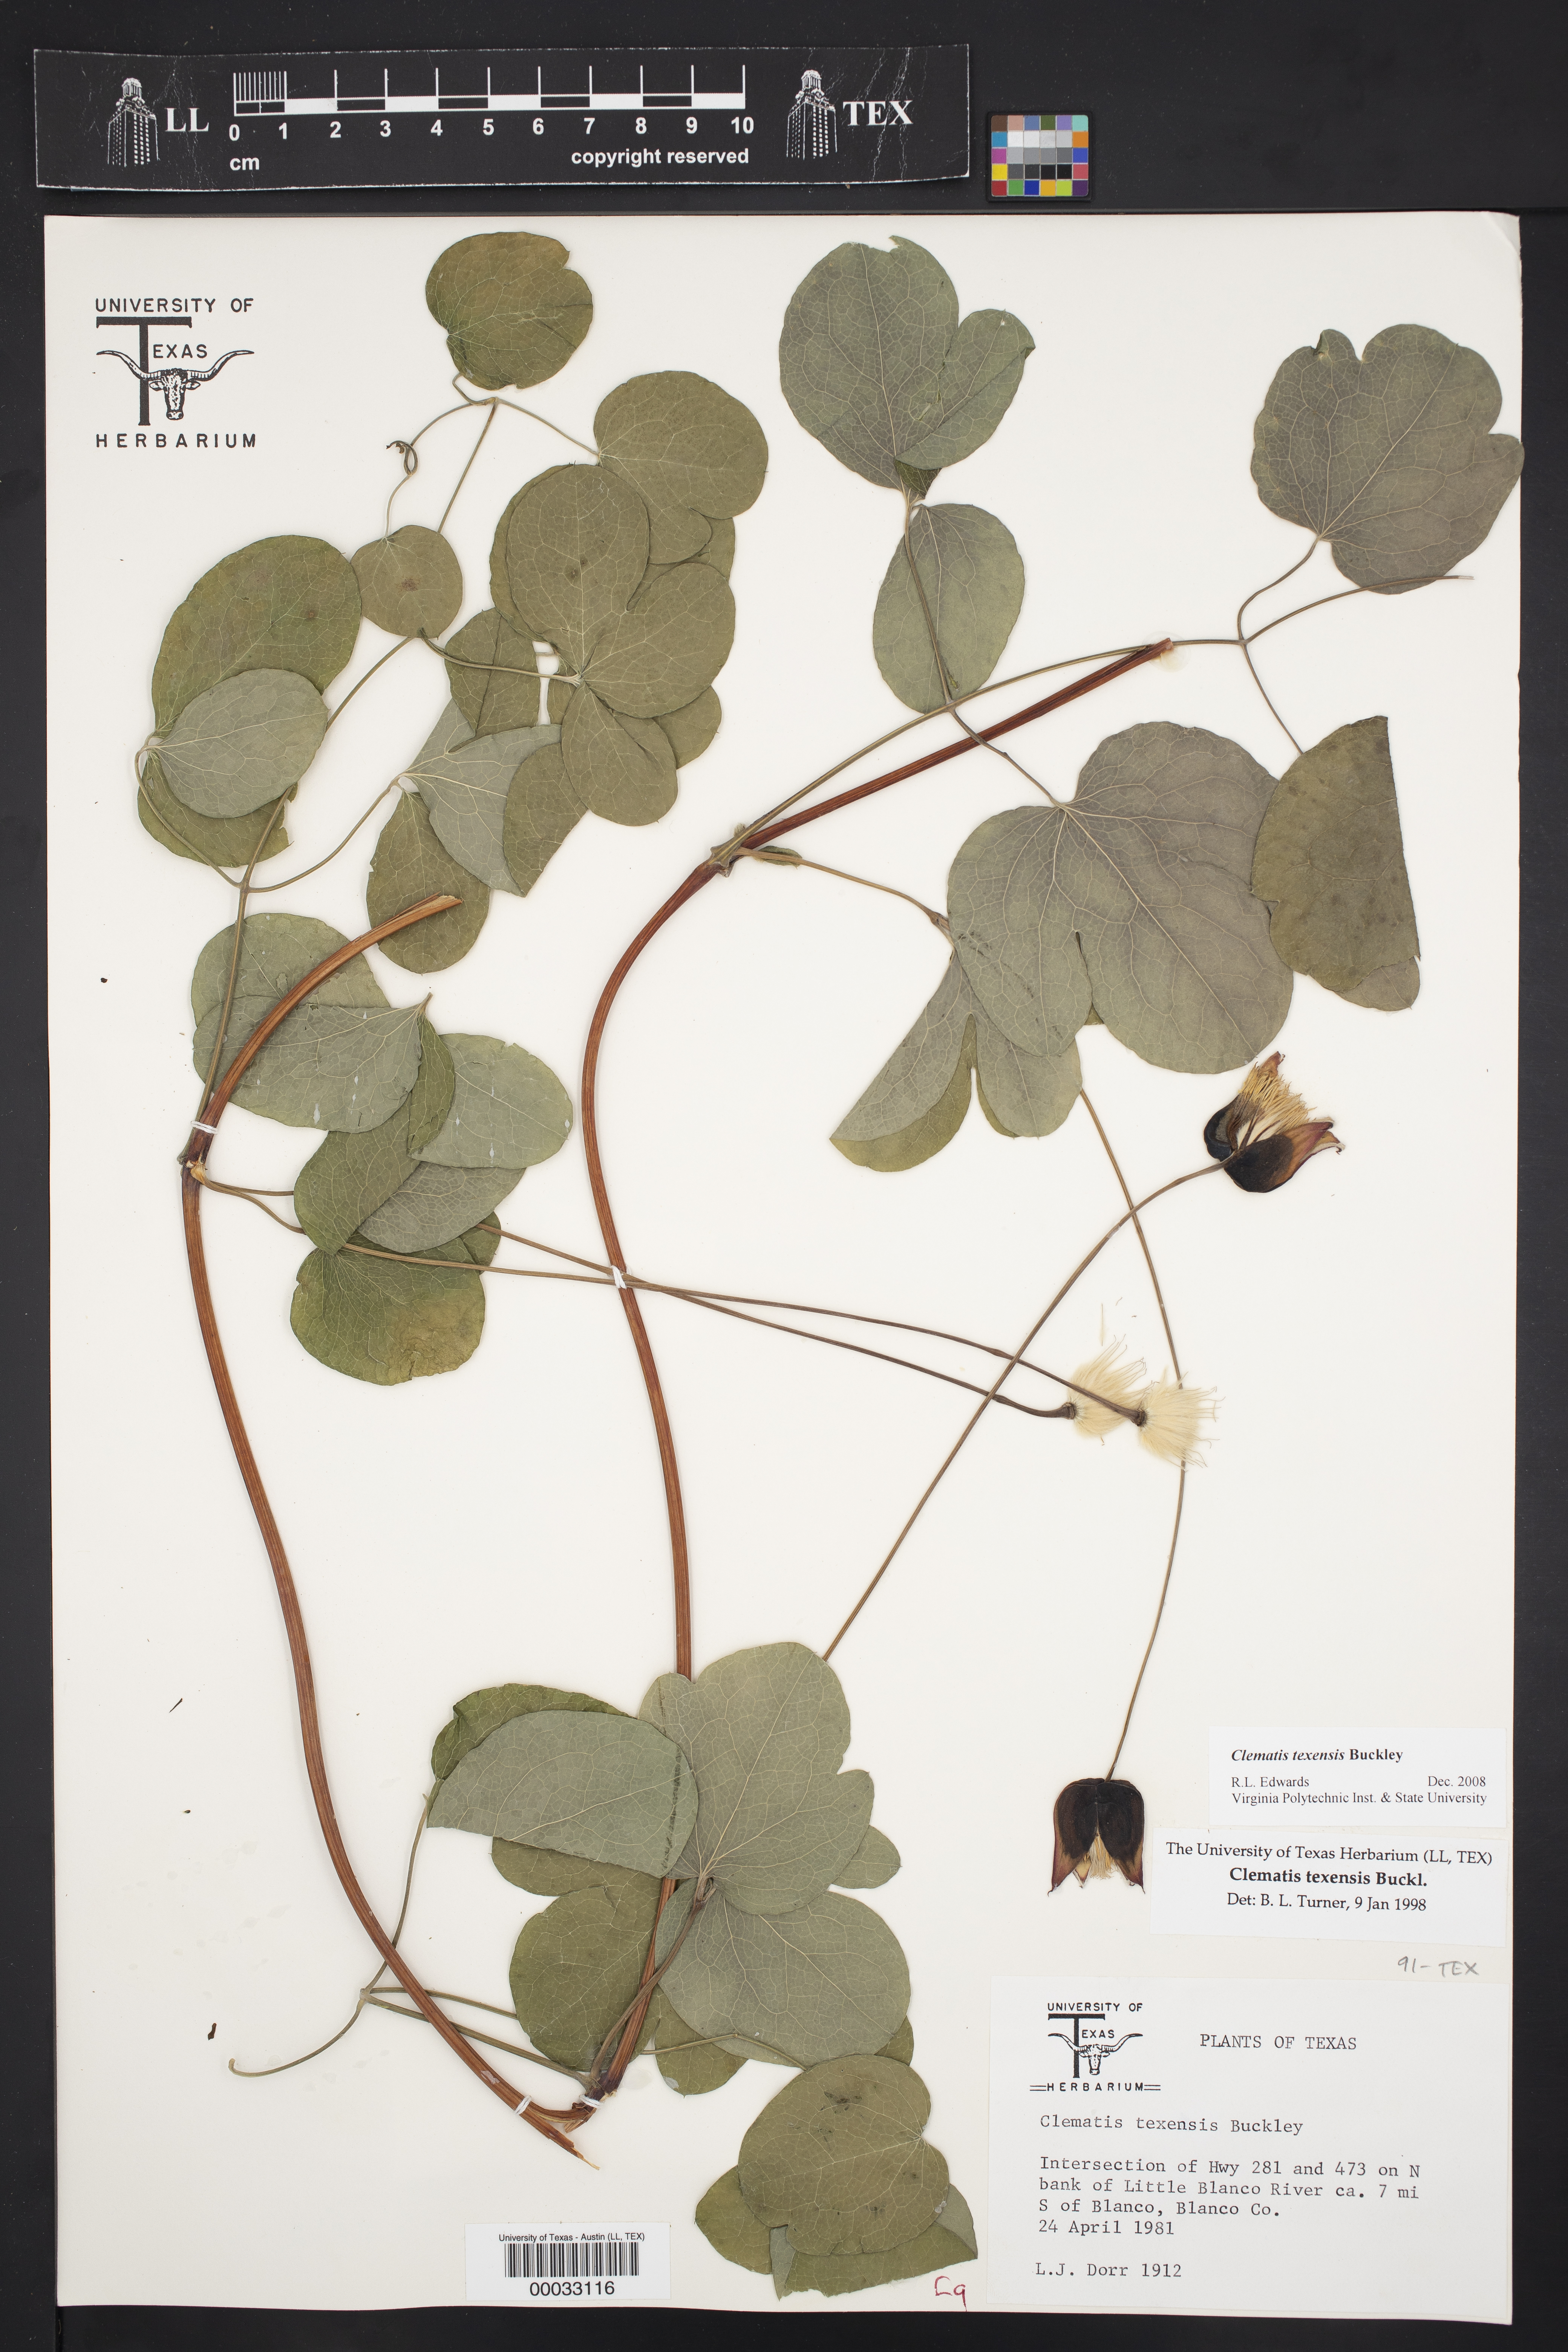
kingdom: Plantae
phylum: Tracheophyta
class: Magnoliopsida
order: Ranunculales
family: Ranunculaceae
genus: Clematis
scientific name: Clematis texensis
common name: Crimson clematis
